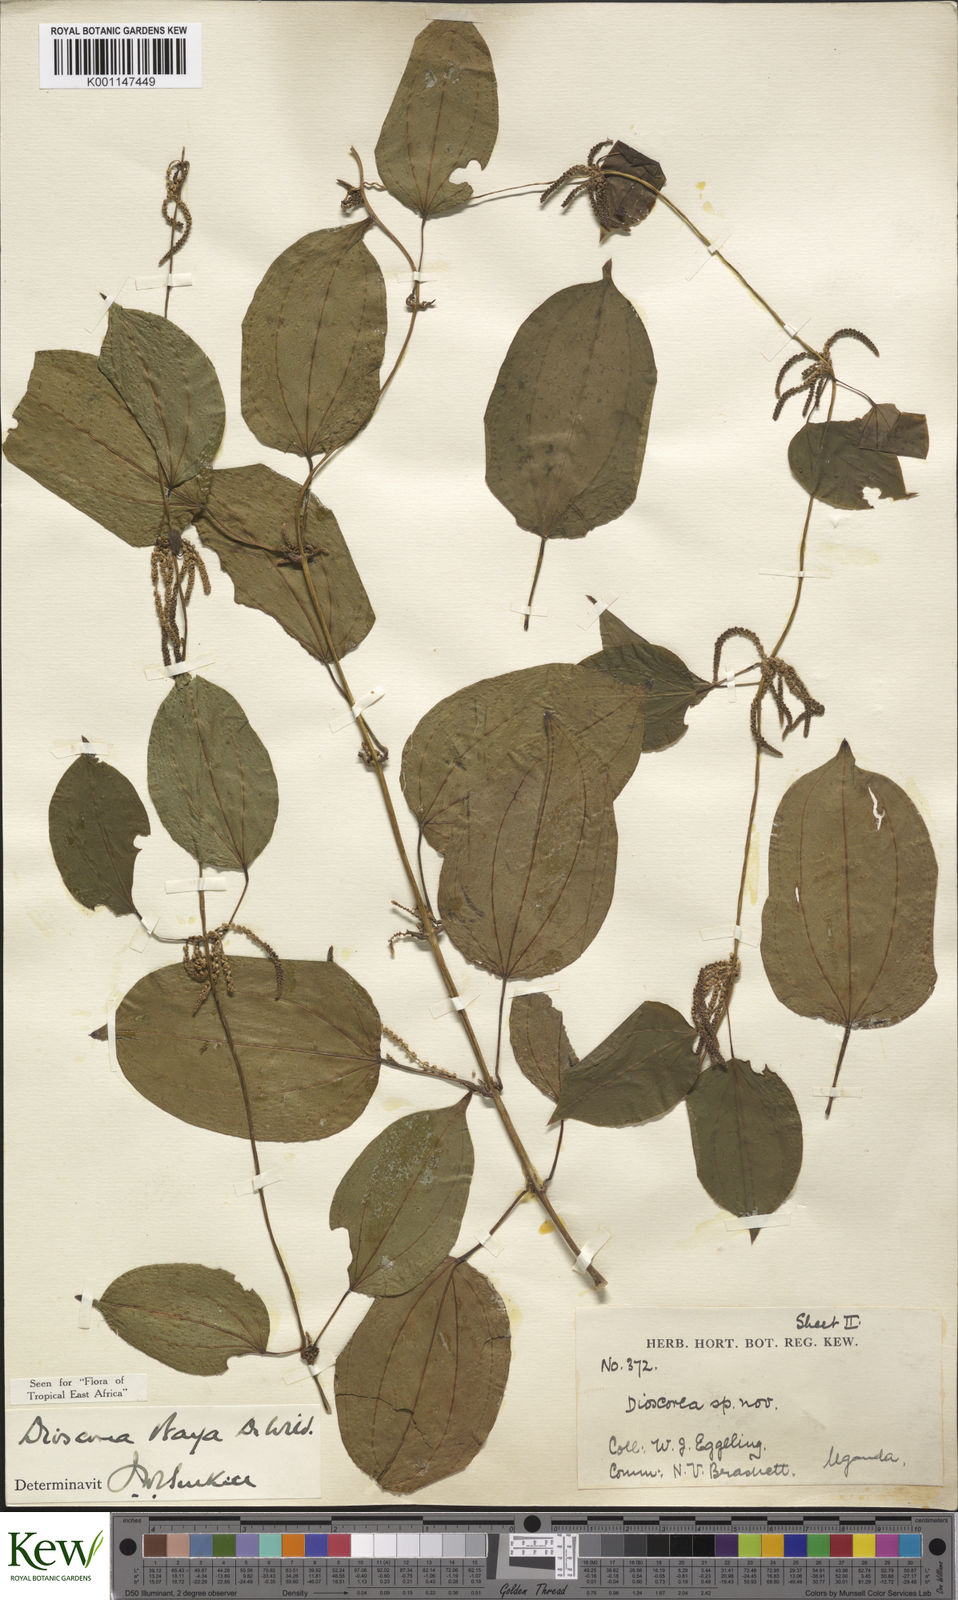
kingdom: Plantae
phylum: Tracheophyta
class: Liliopsida
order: Dioscoreales
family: Dioscoreaceae
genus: Dioscorea
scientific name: Dioscorea baya
